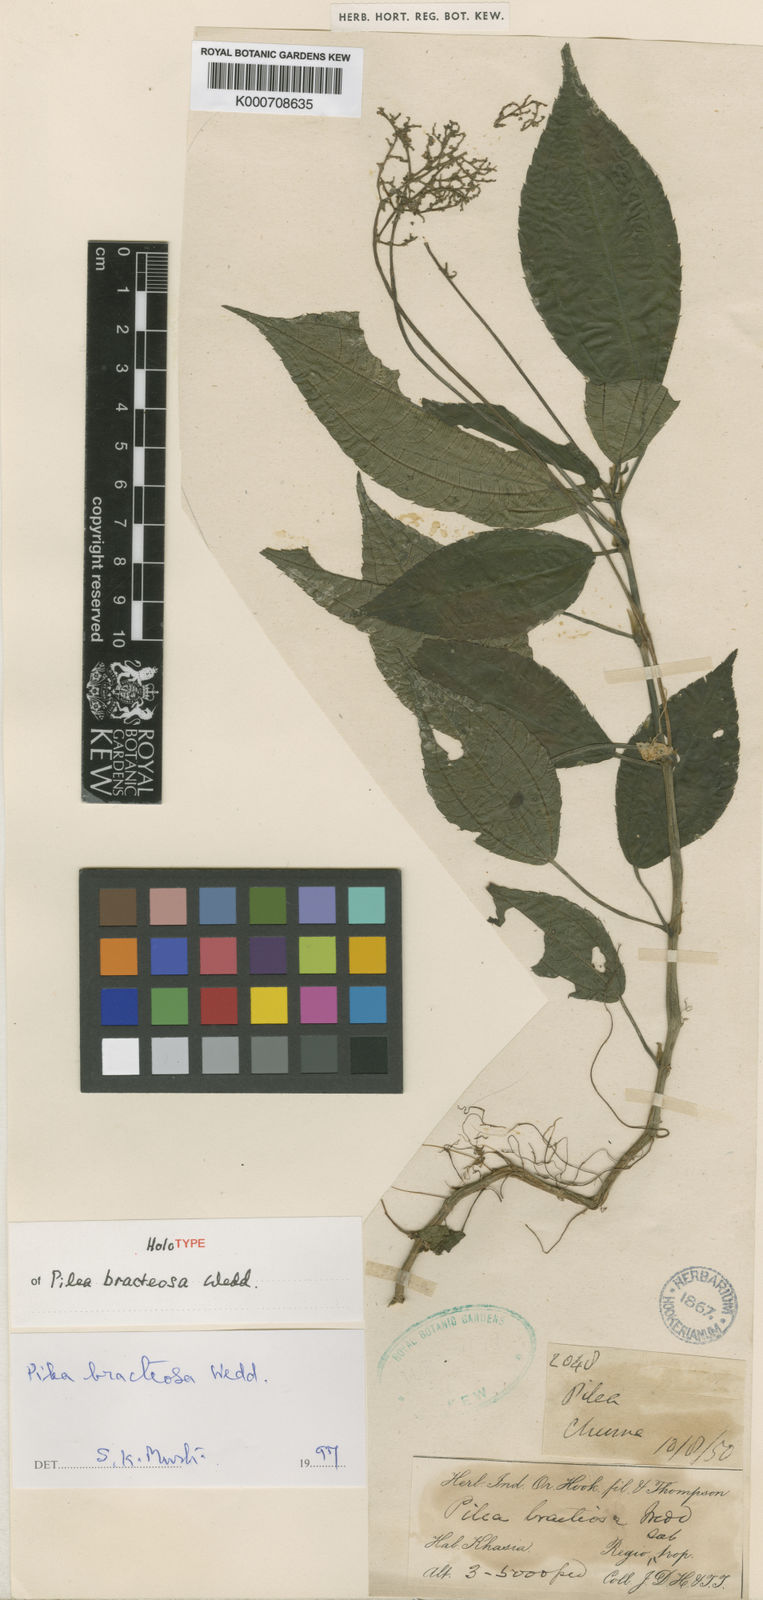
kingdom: Plantae
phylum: Tracheophyta
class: Magnoliopsida
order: Rosales
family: Urticaceae
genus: Pilea
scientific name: Pilea bracteosa
